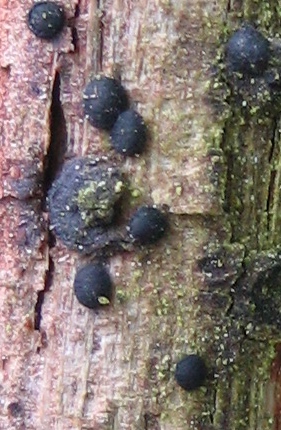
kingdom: Fungi
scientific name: Fungi
